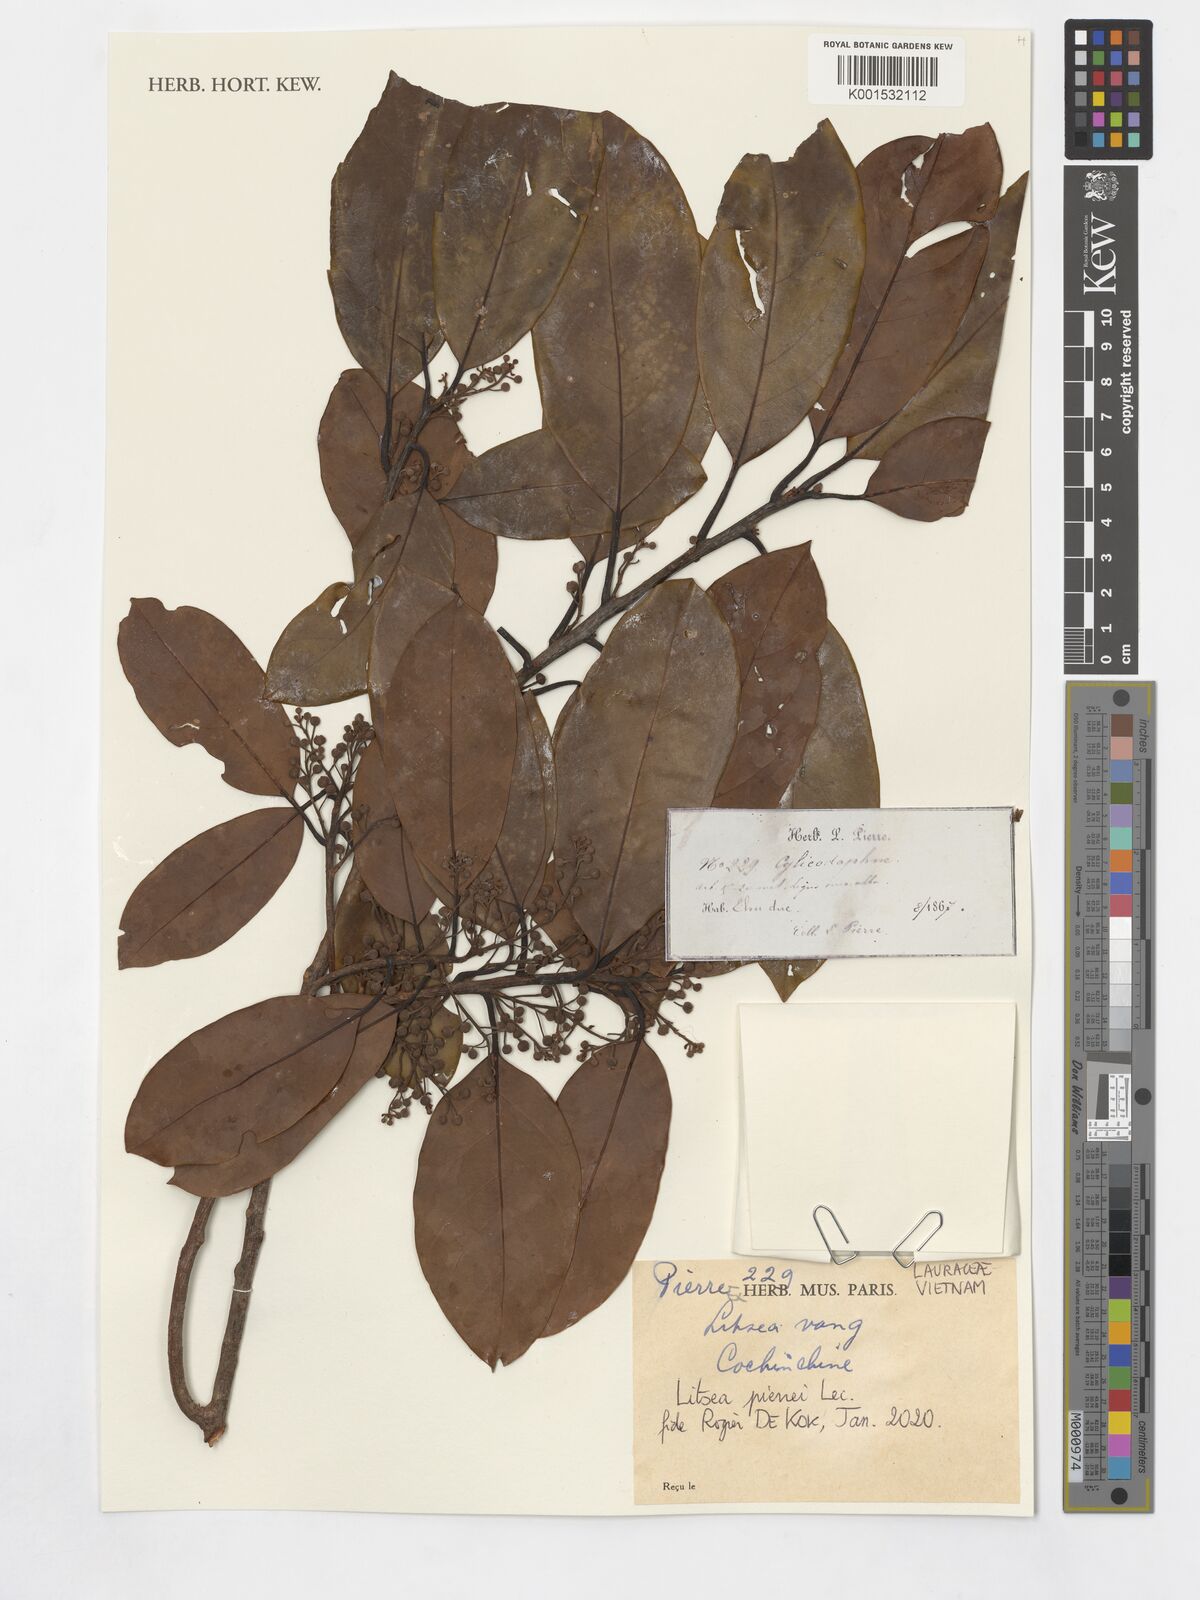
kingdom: Plantae
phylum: Tracheophyta
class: Magnoliopsida
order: Laurales
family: Lauraceae
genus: Litsea
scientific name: Litsea cambodiana
